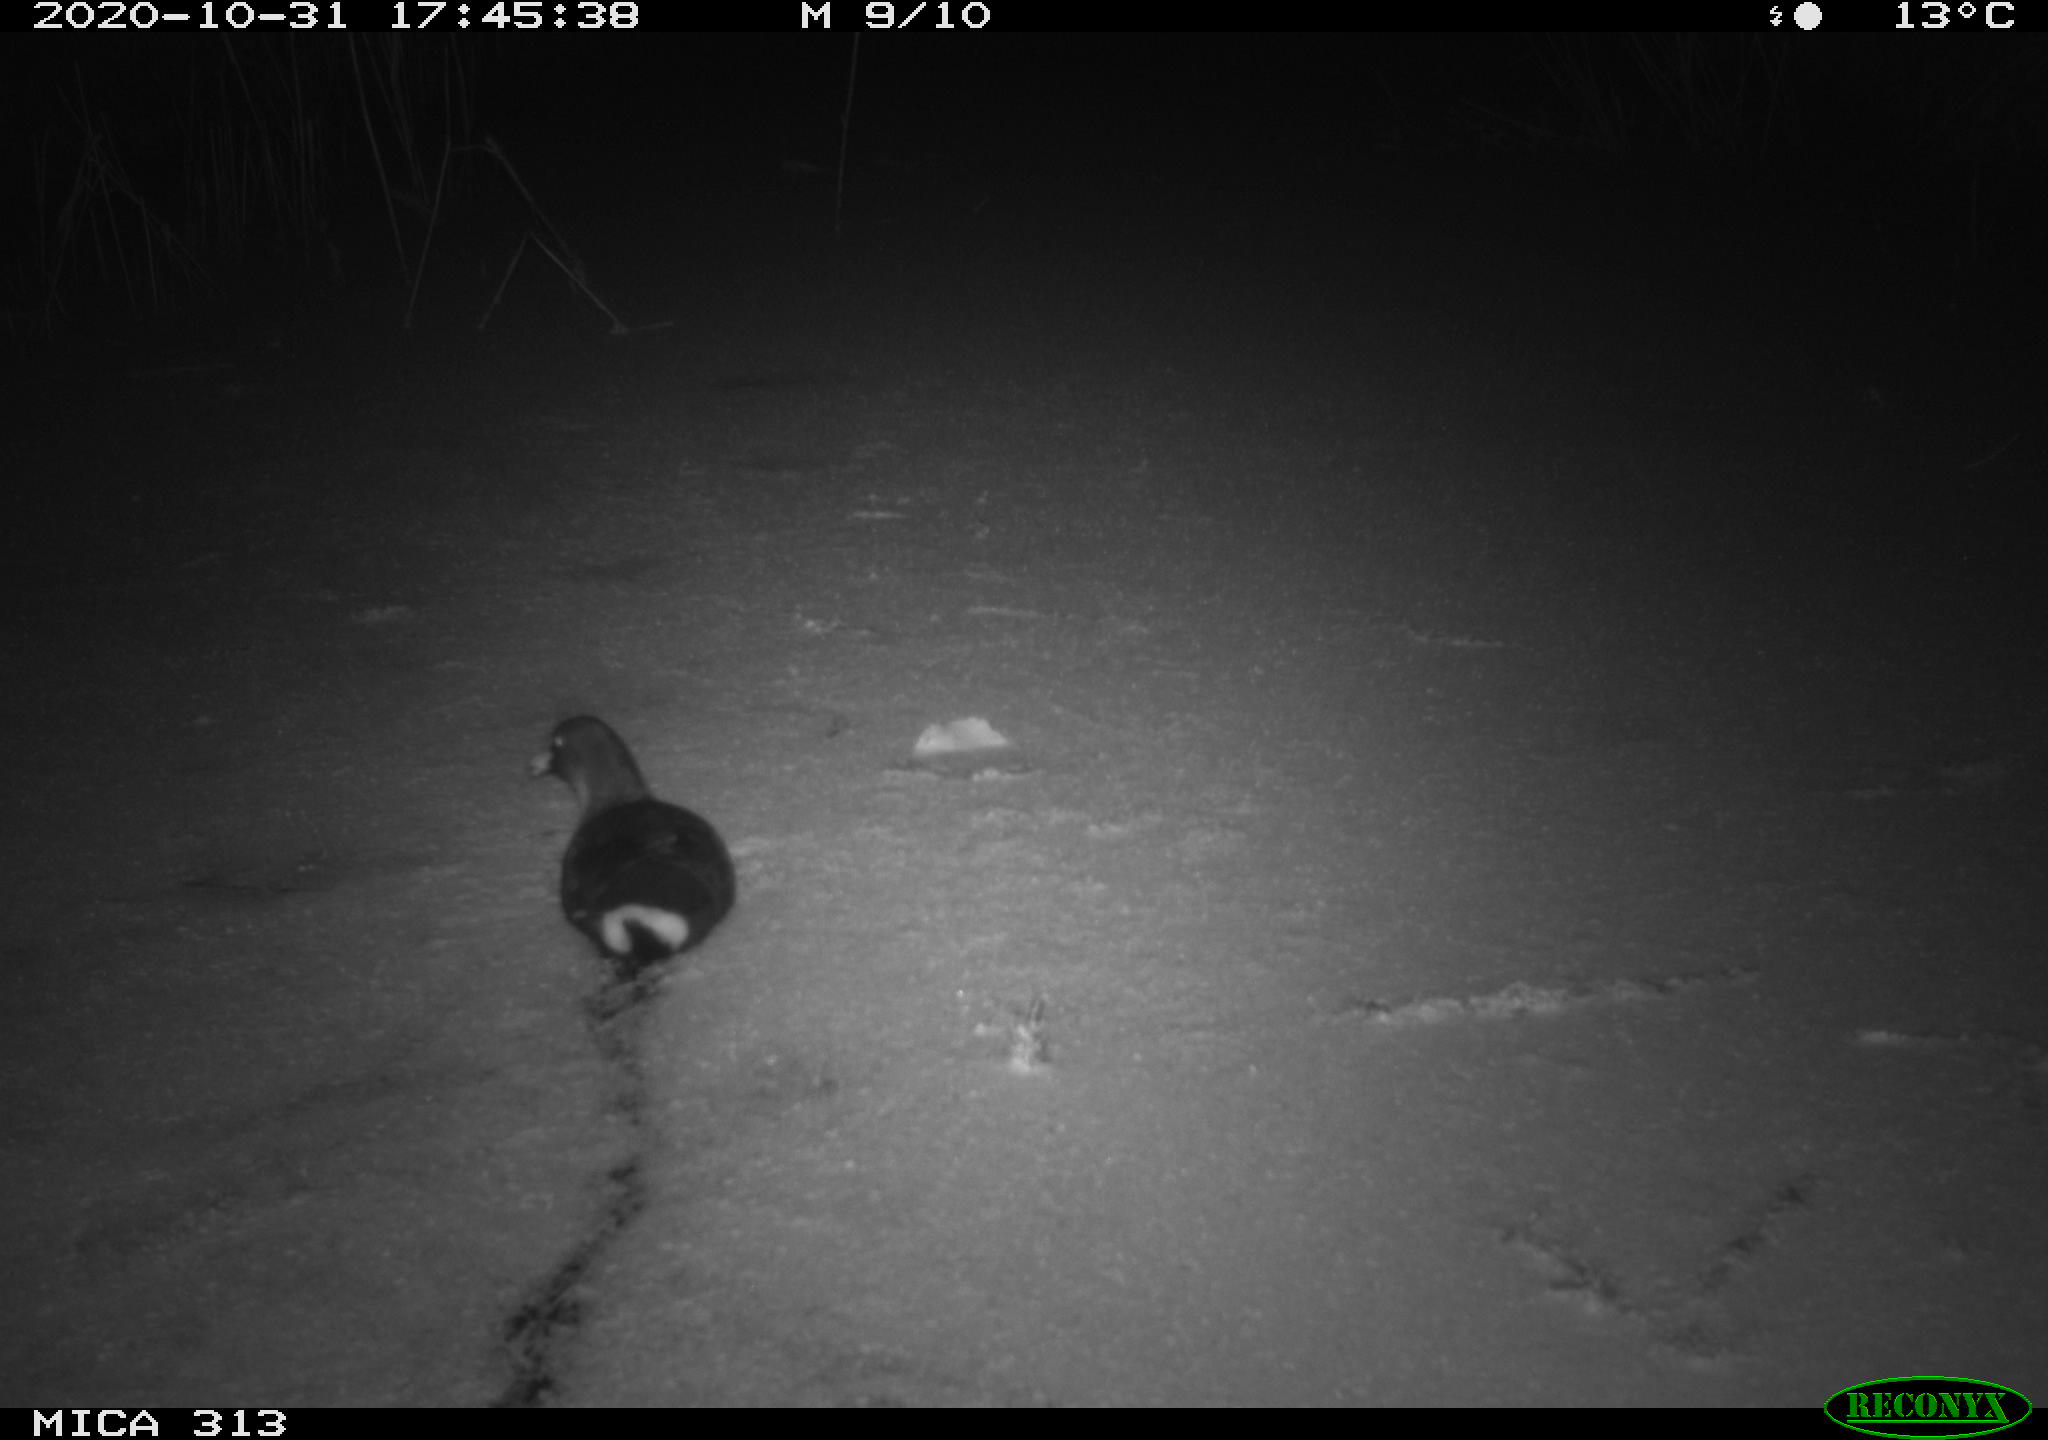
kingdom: Animalia
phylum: Chordata
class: Aves
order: Gruiformes
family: Rallidae
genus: Gallinula
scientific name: Gallinula chloropus
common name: Common moorhen
